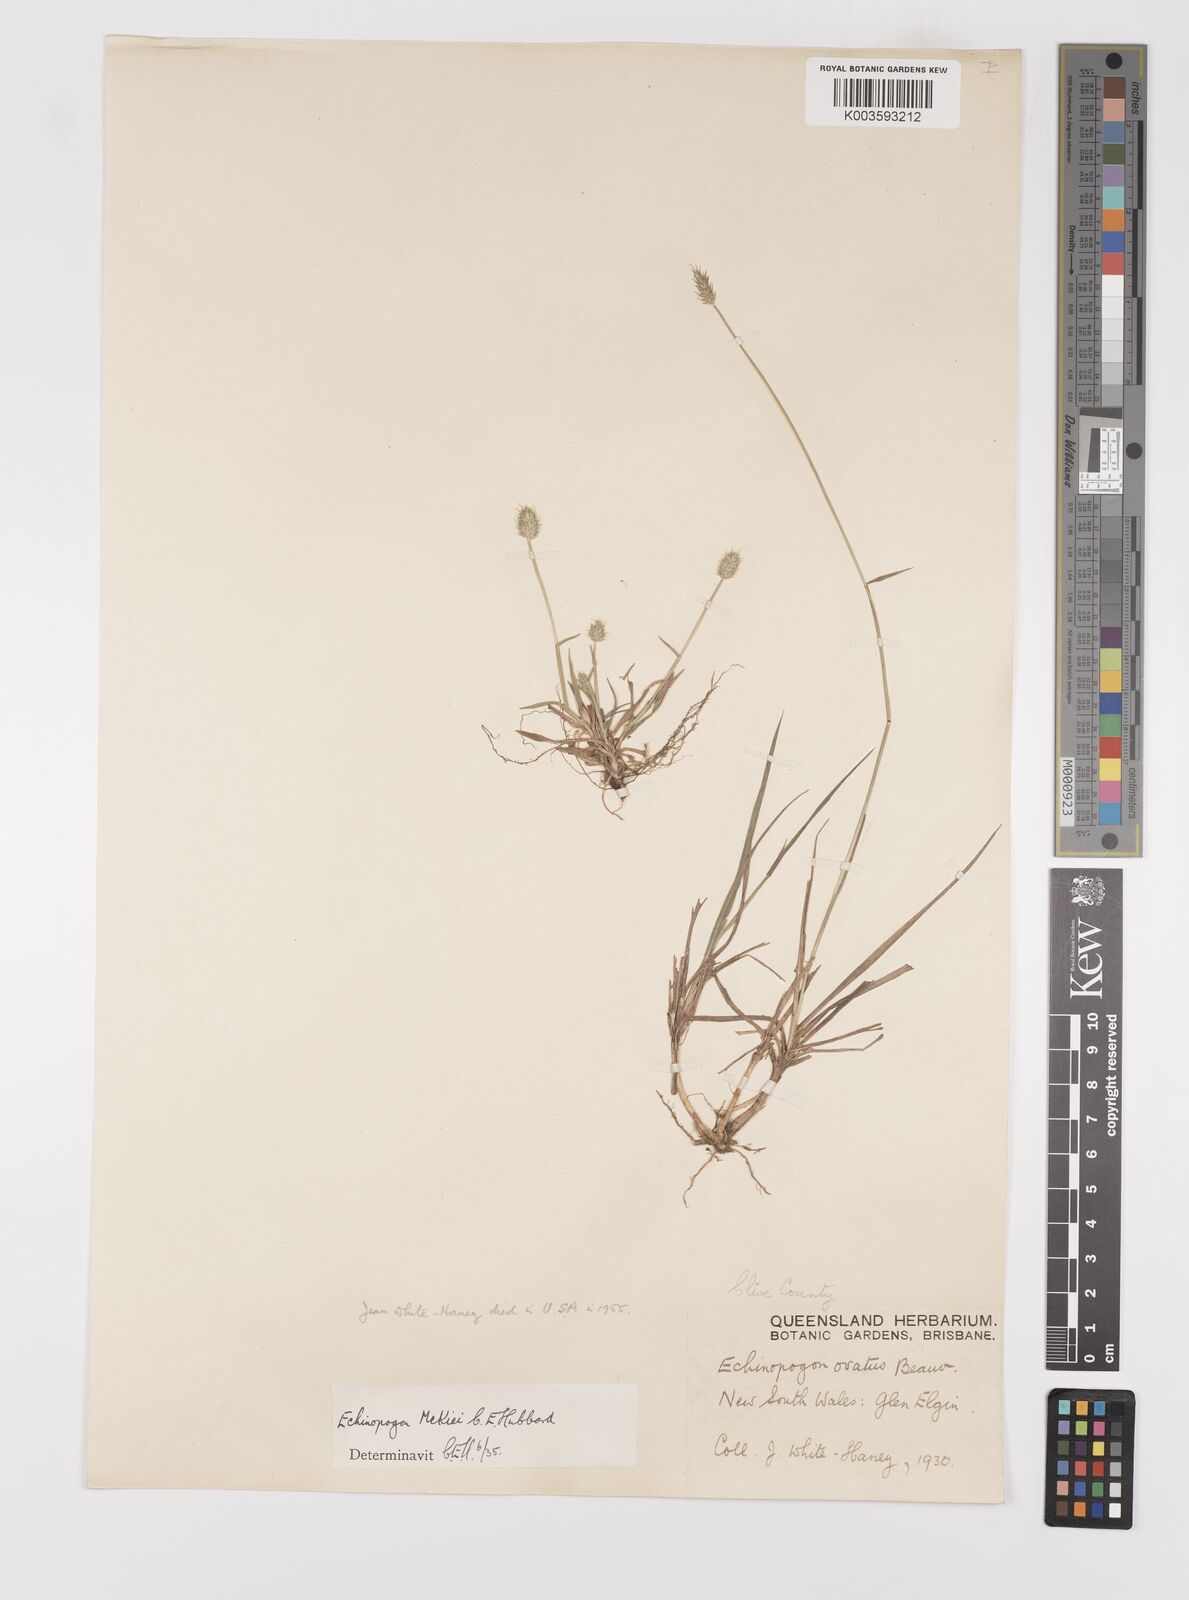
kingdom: Plantae
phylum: Tracheophyta
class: Liliopsida
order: Poales
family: Poaceae
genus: Echinopogon
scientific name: Echinopogon mckiei
